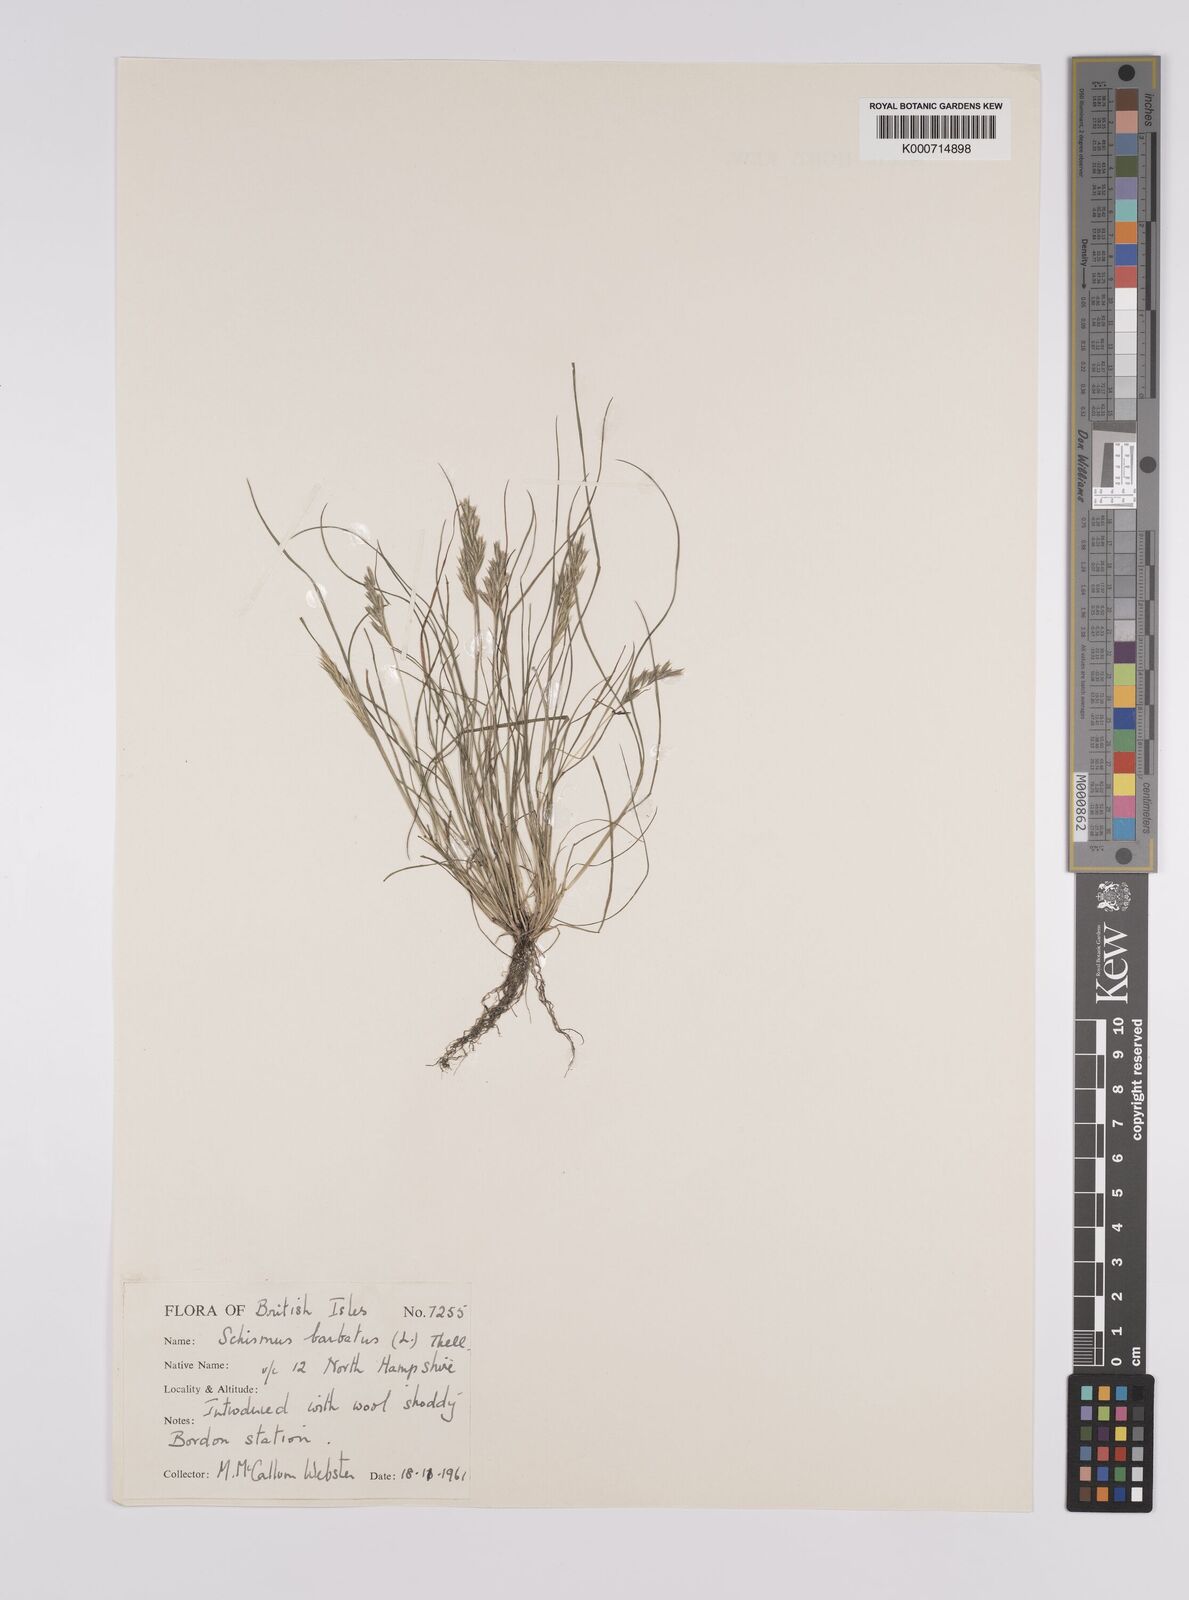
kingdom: Plantae
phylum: Tracheophyta
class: Liliopsida
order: Poales
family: Poaceae
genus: Schismus
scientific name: Schismus barbatus
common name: Kelch-grass
